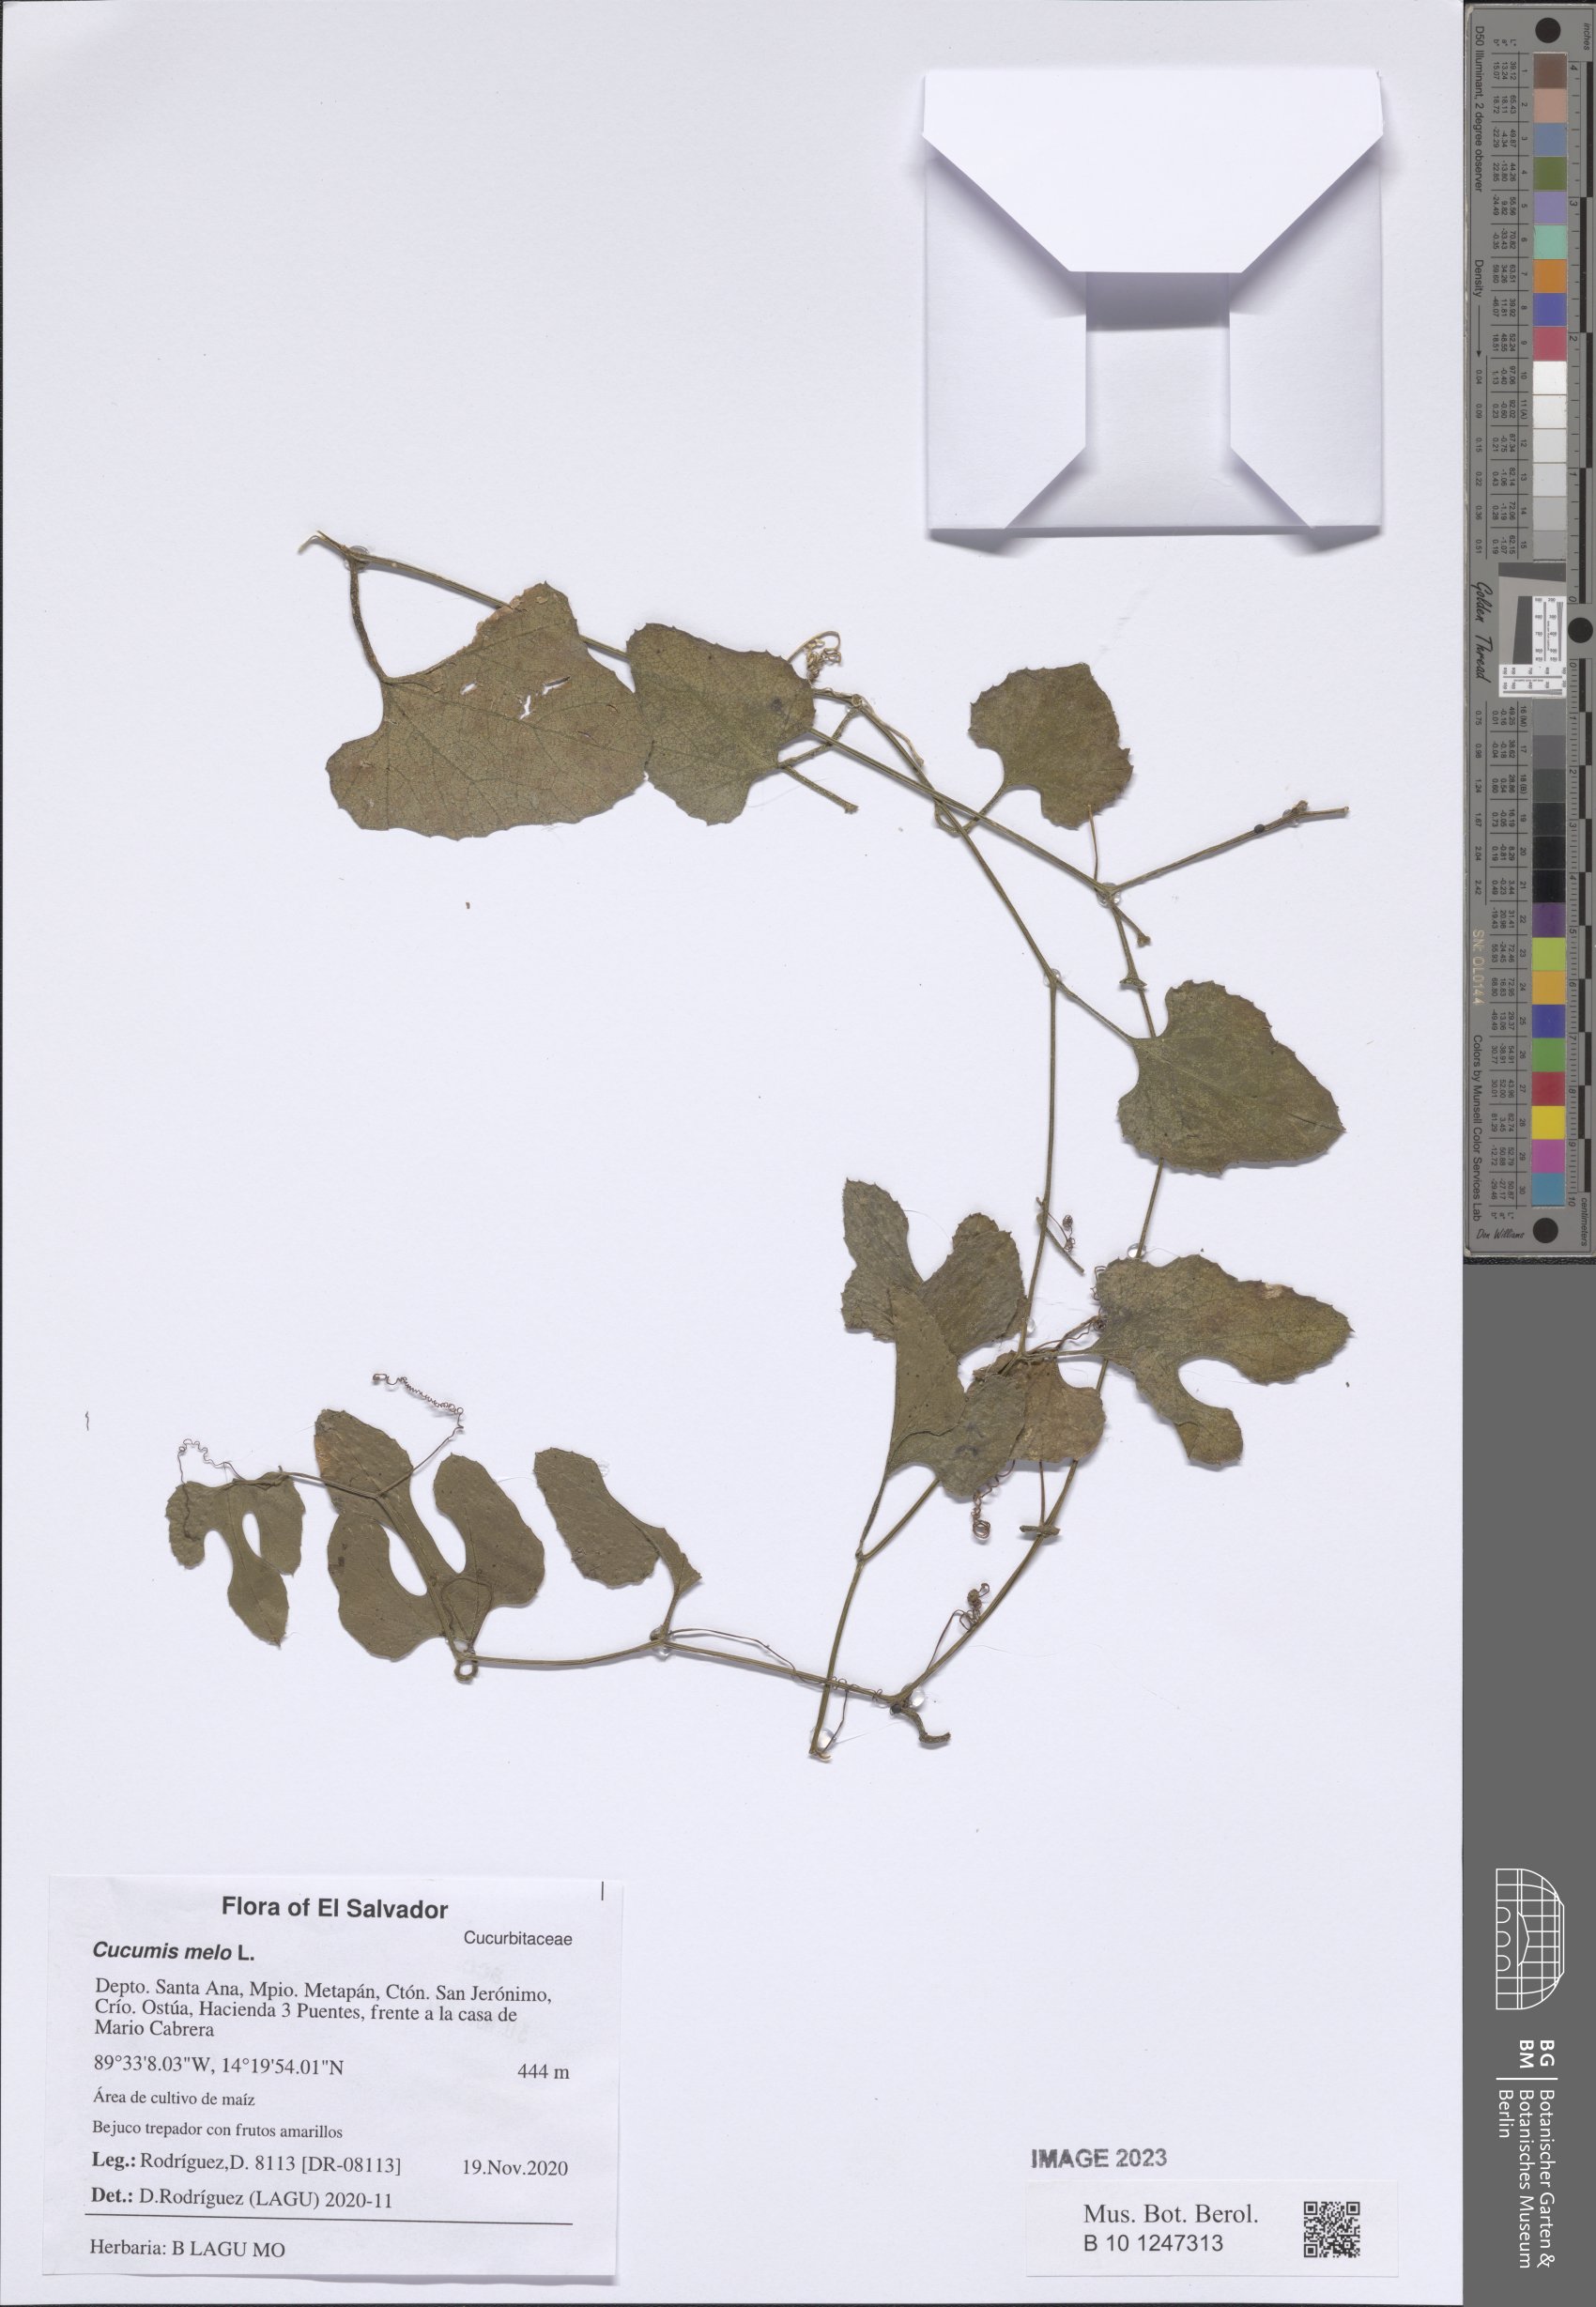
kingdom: Plantae
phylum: Tracheophyta
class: Magnoliopsida
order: Cucurbitales
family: Cucurbitaceae
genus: Cucumis
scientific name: Cucumis melo
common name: Melon
